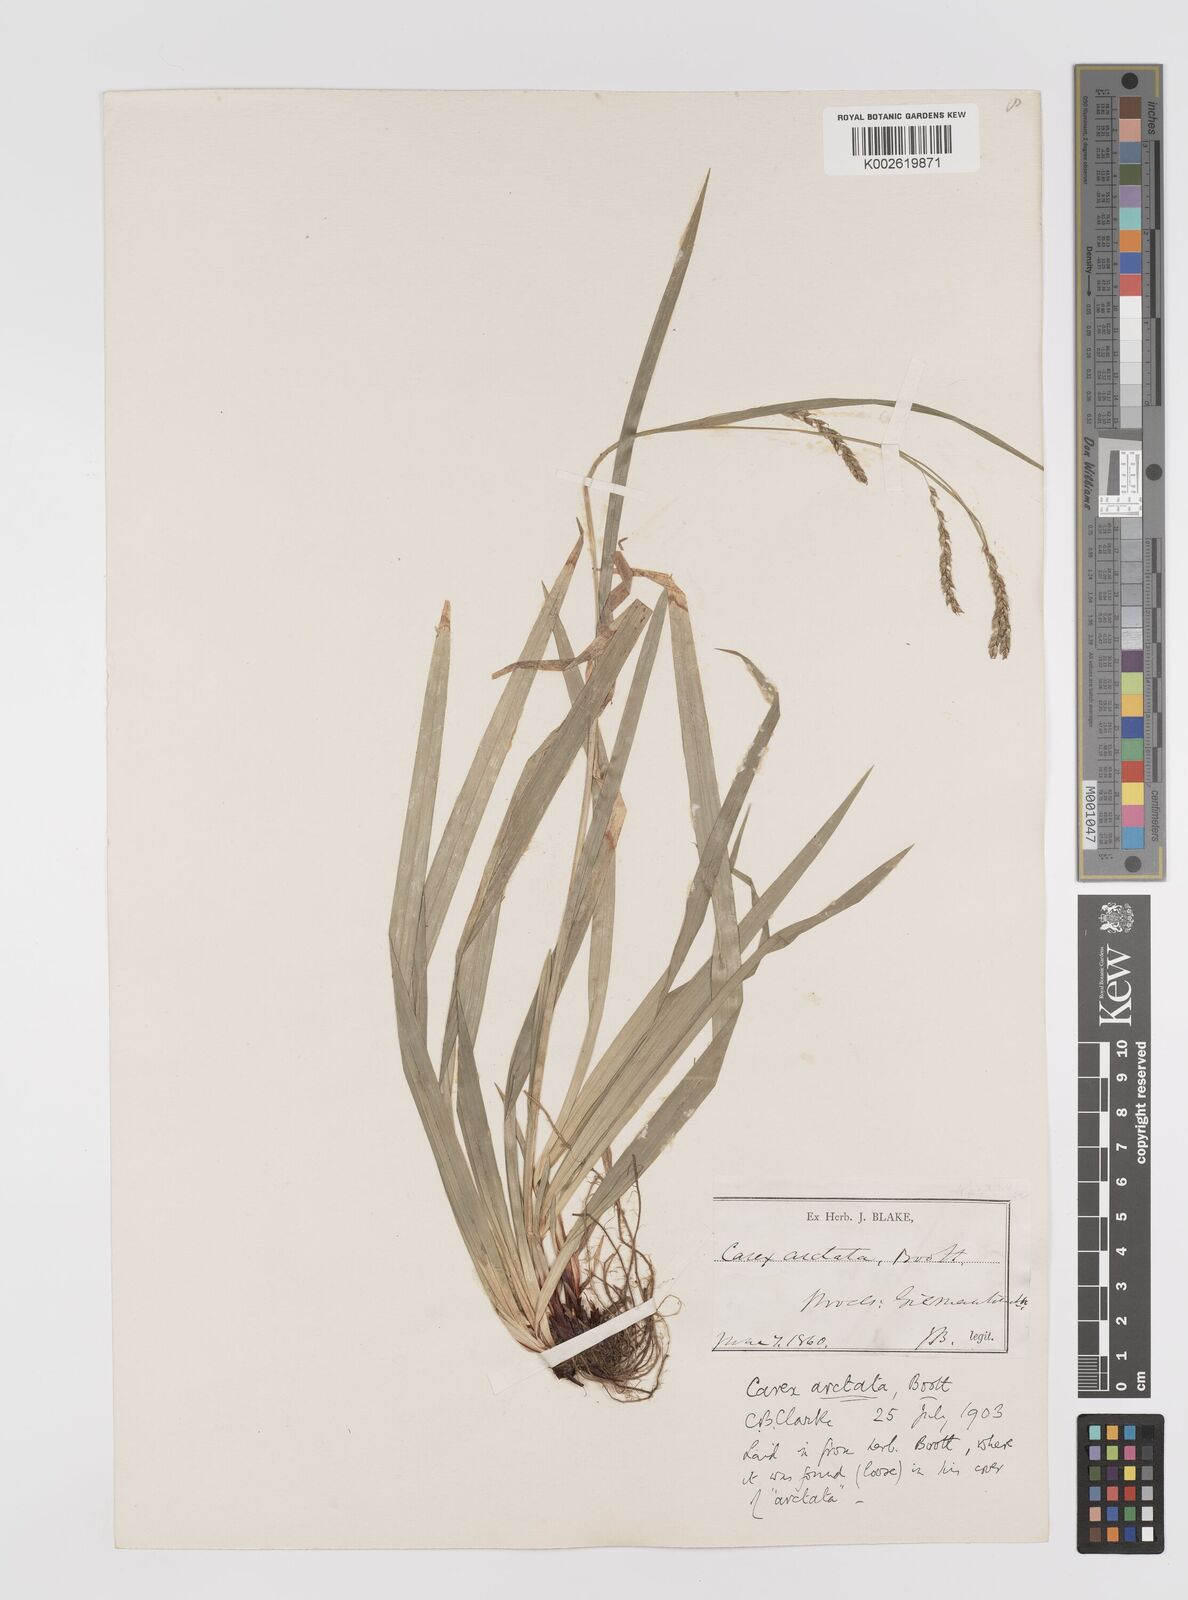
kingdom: Plantae
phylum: Tracheophyta
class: Liliopsida
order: Poales
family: Cyperaceae
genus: Carex
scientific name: Carex arctata
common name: Black sedge
